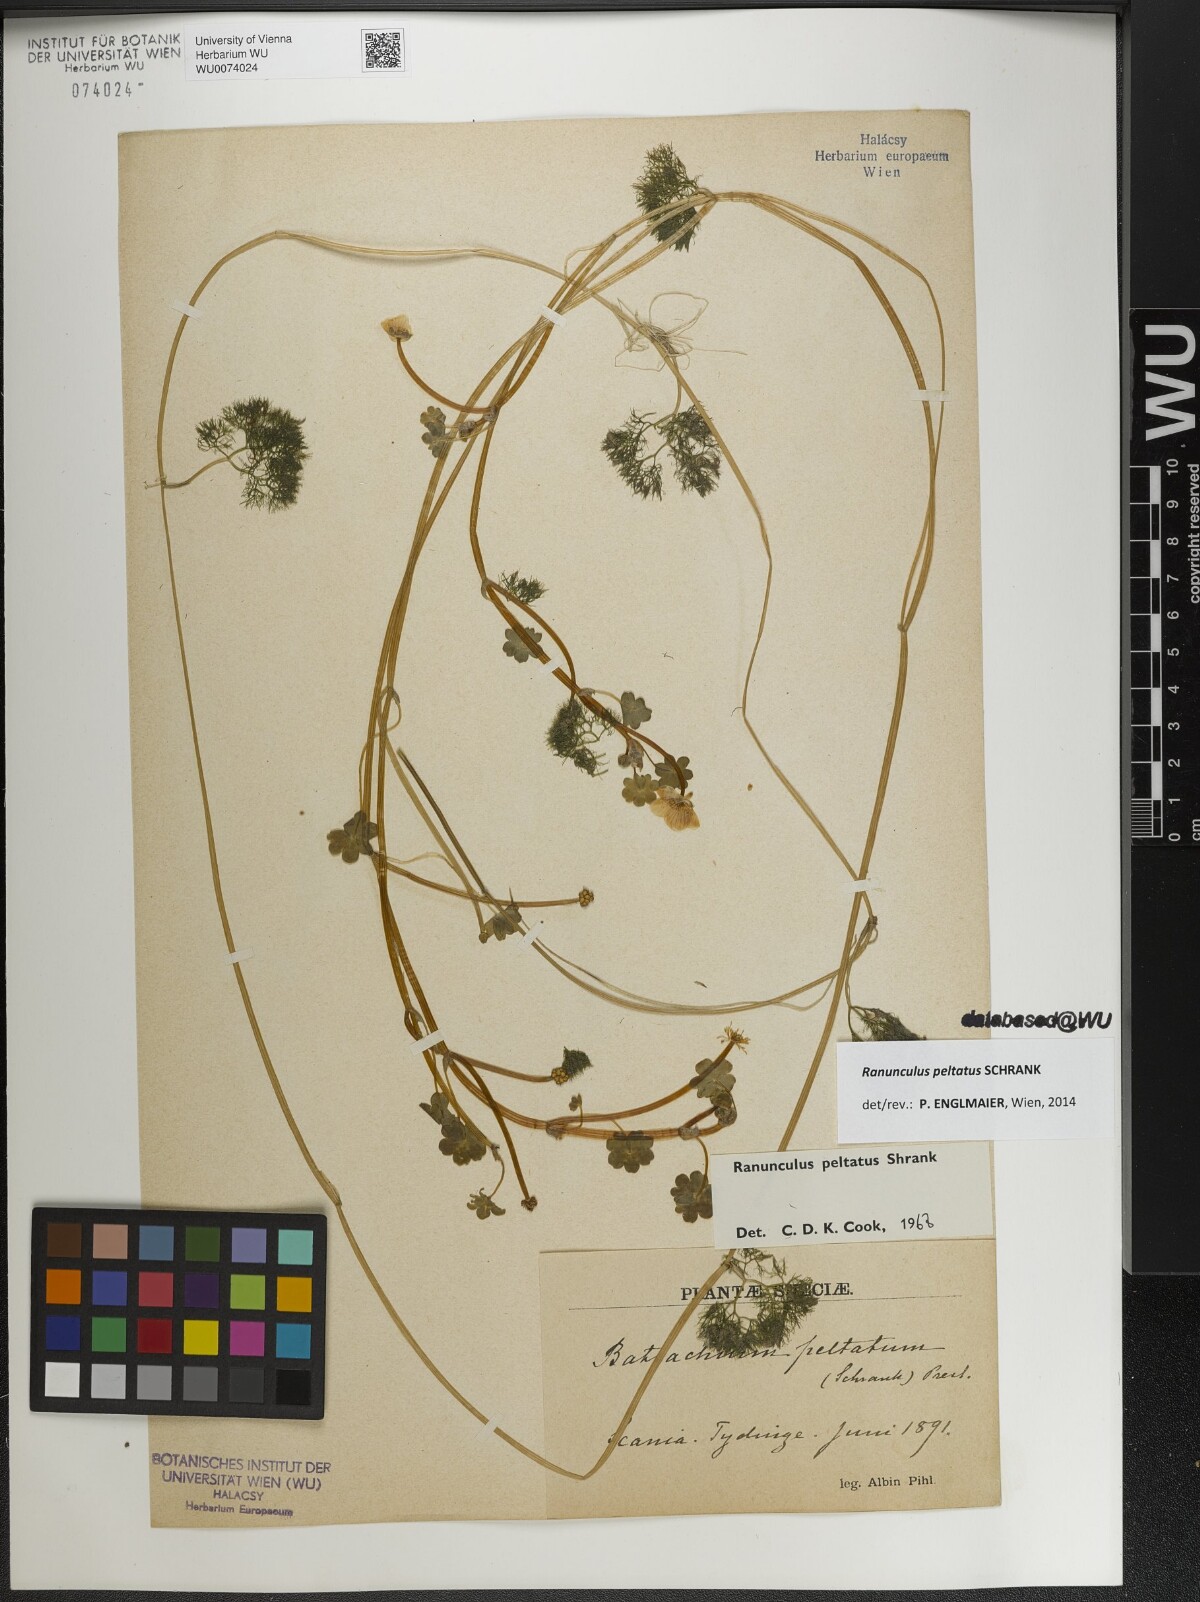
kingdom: Plantae
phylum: Tracheophyta
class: Magnoliopsida
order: Ranunculales
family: Ranunculaceae
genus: Ranunculus
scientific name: Ranunculus peltatus
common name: Pond water-crowfoot
